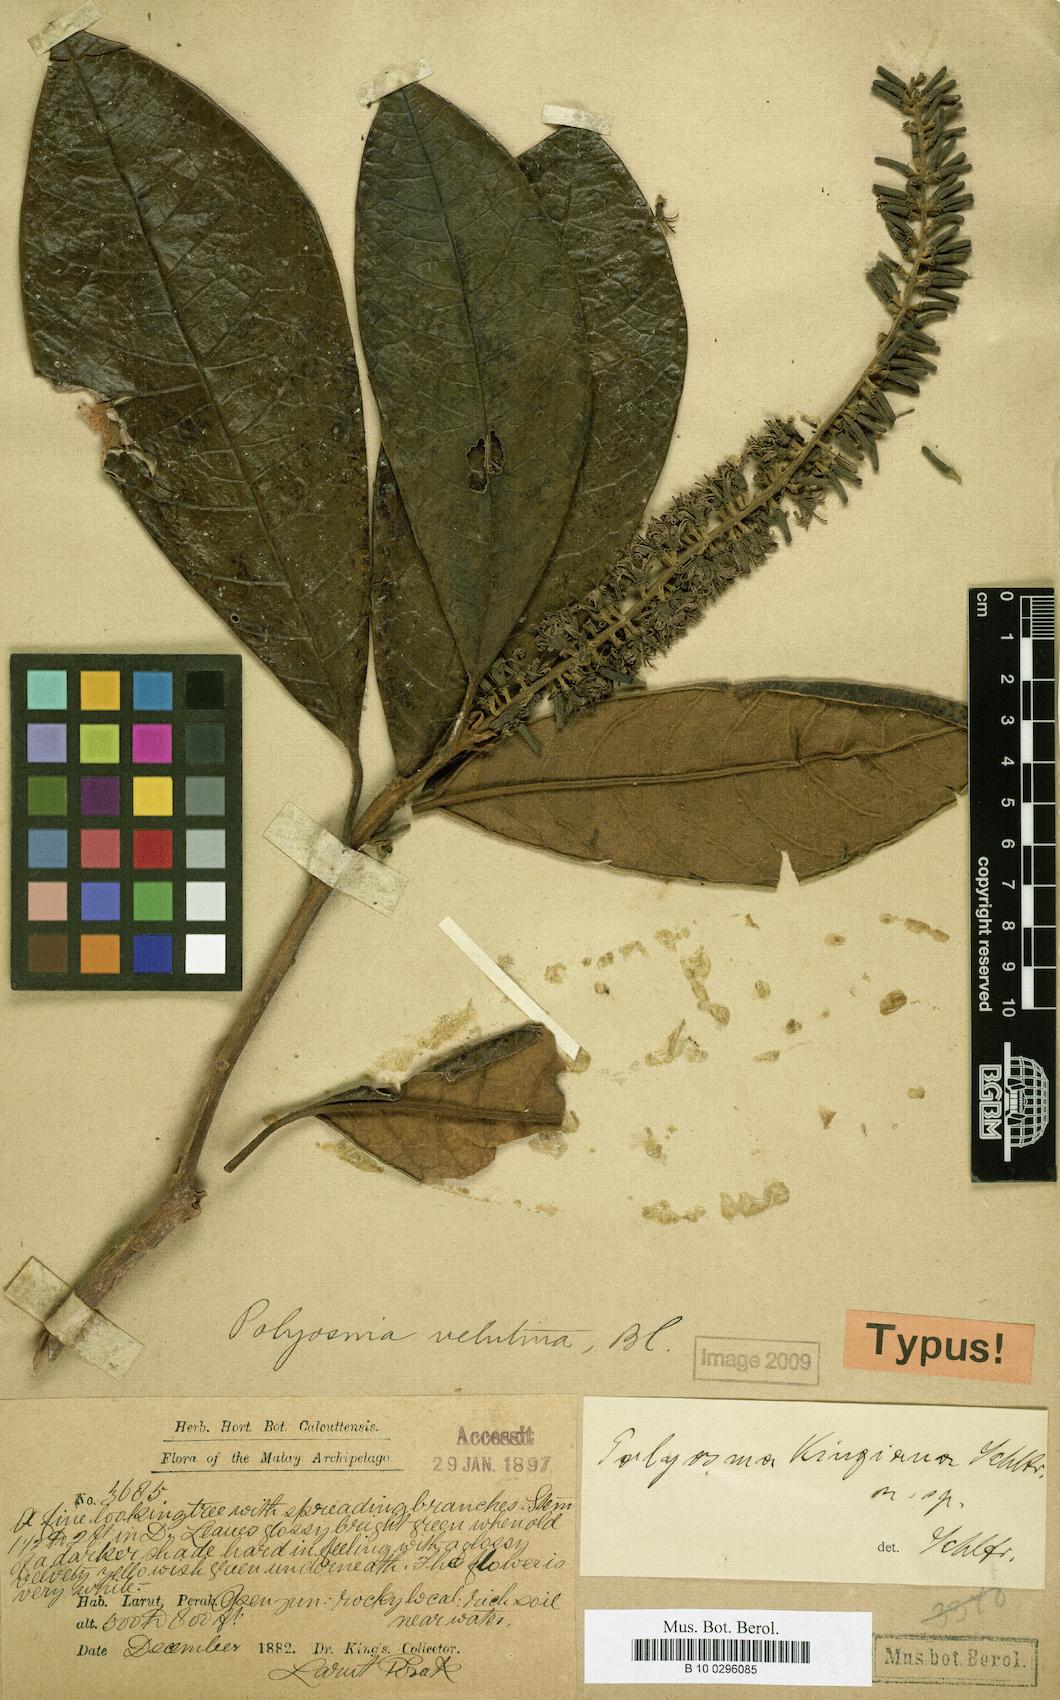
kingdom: Plantae
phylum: Tracheophyta
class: Magnoliopsida
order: Escalloniales
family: Escalloniaceae
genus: Polyosma
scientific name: Polyosma kingiana
